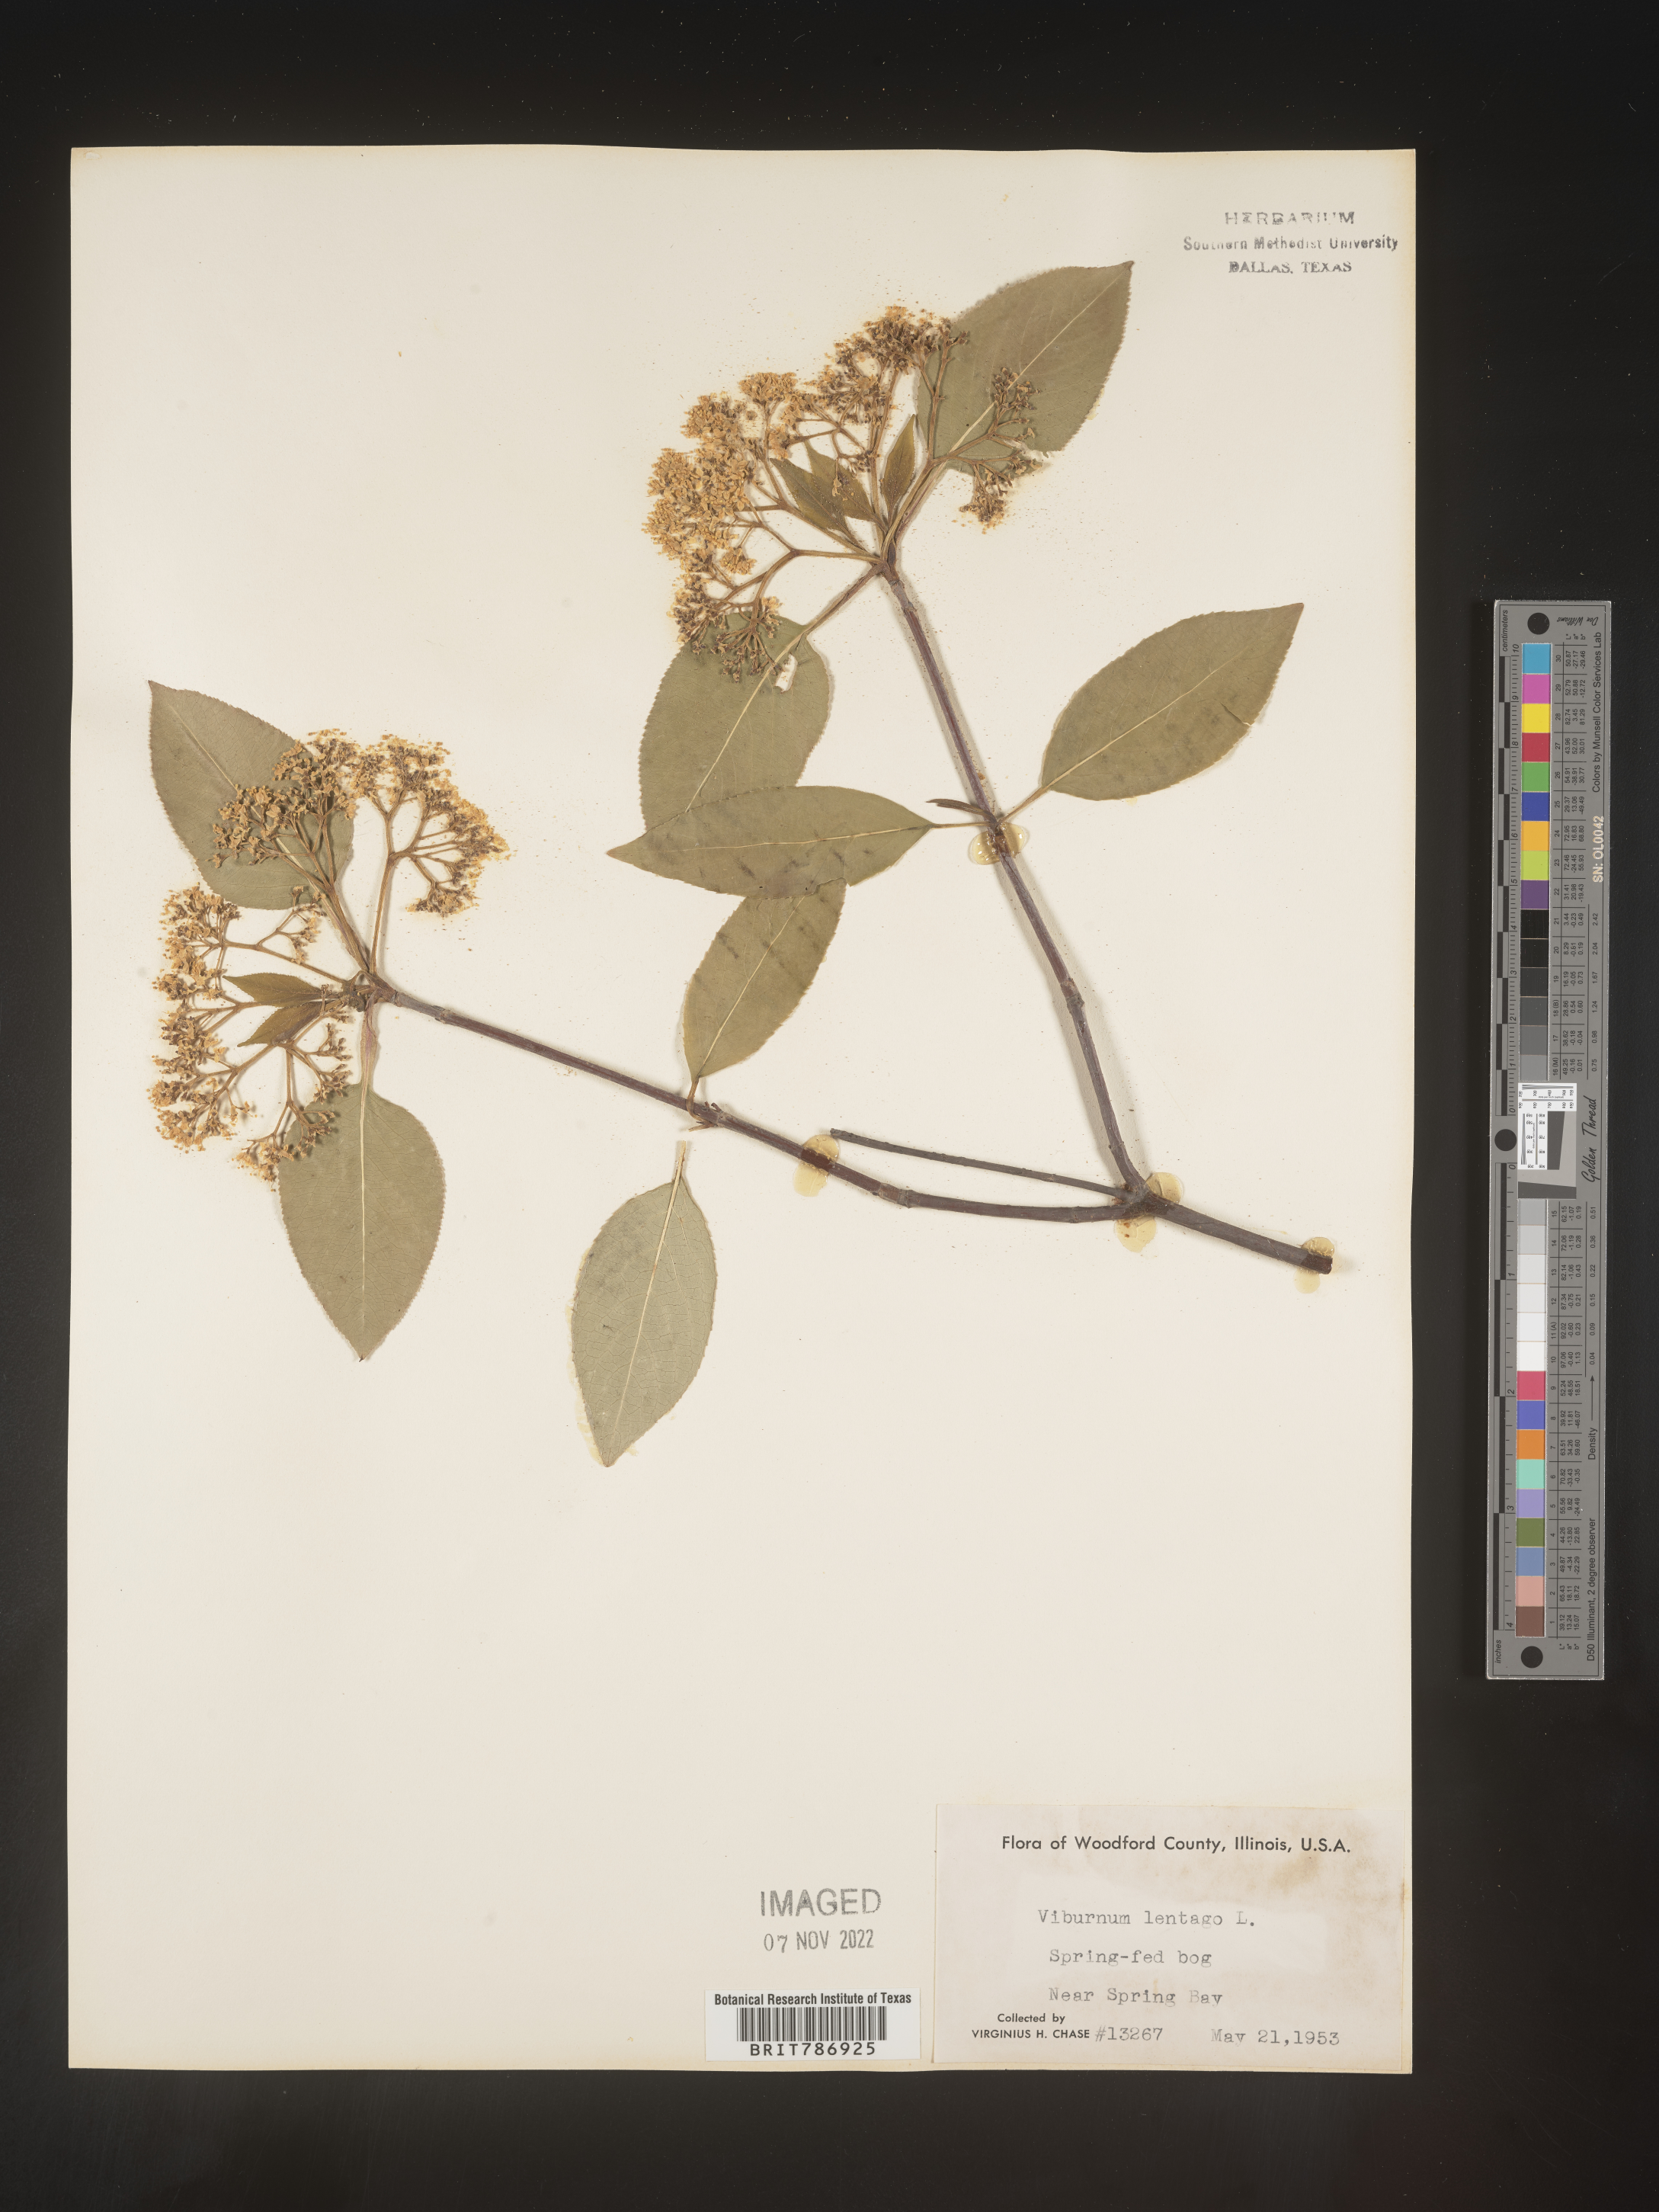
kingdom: Plantae
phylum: Tracheophyta
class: Magnoliopsida
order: Dipsacales
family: Viburnaceae
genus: Viburnum
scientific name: Viburnum lentago
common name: Black haw
